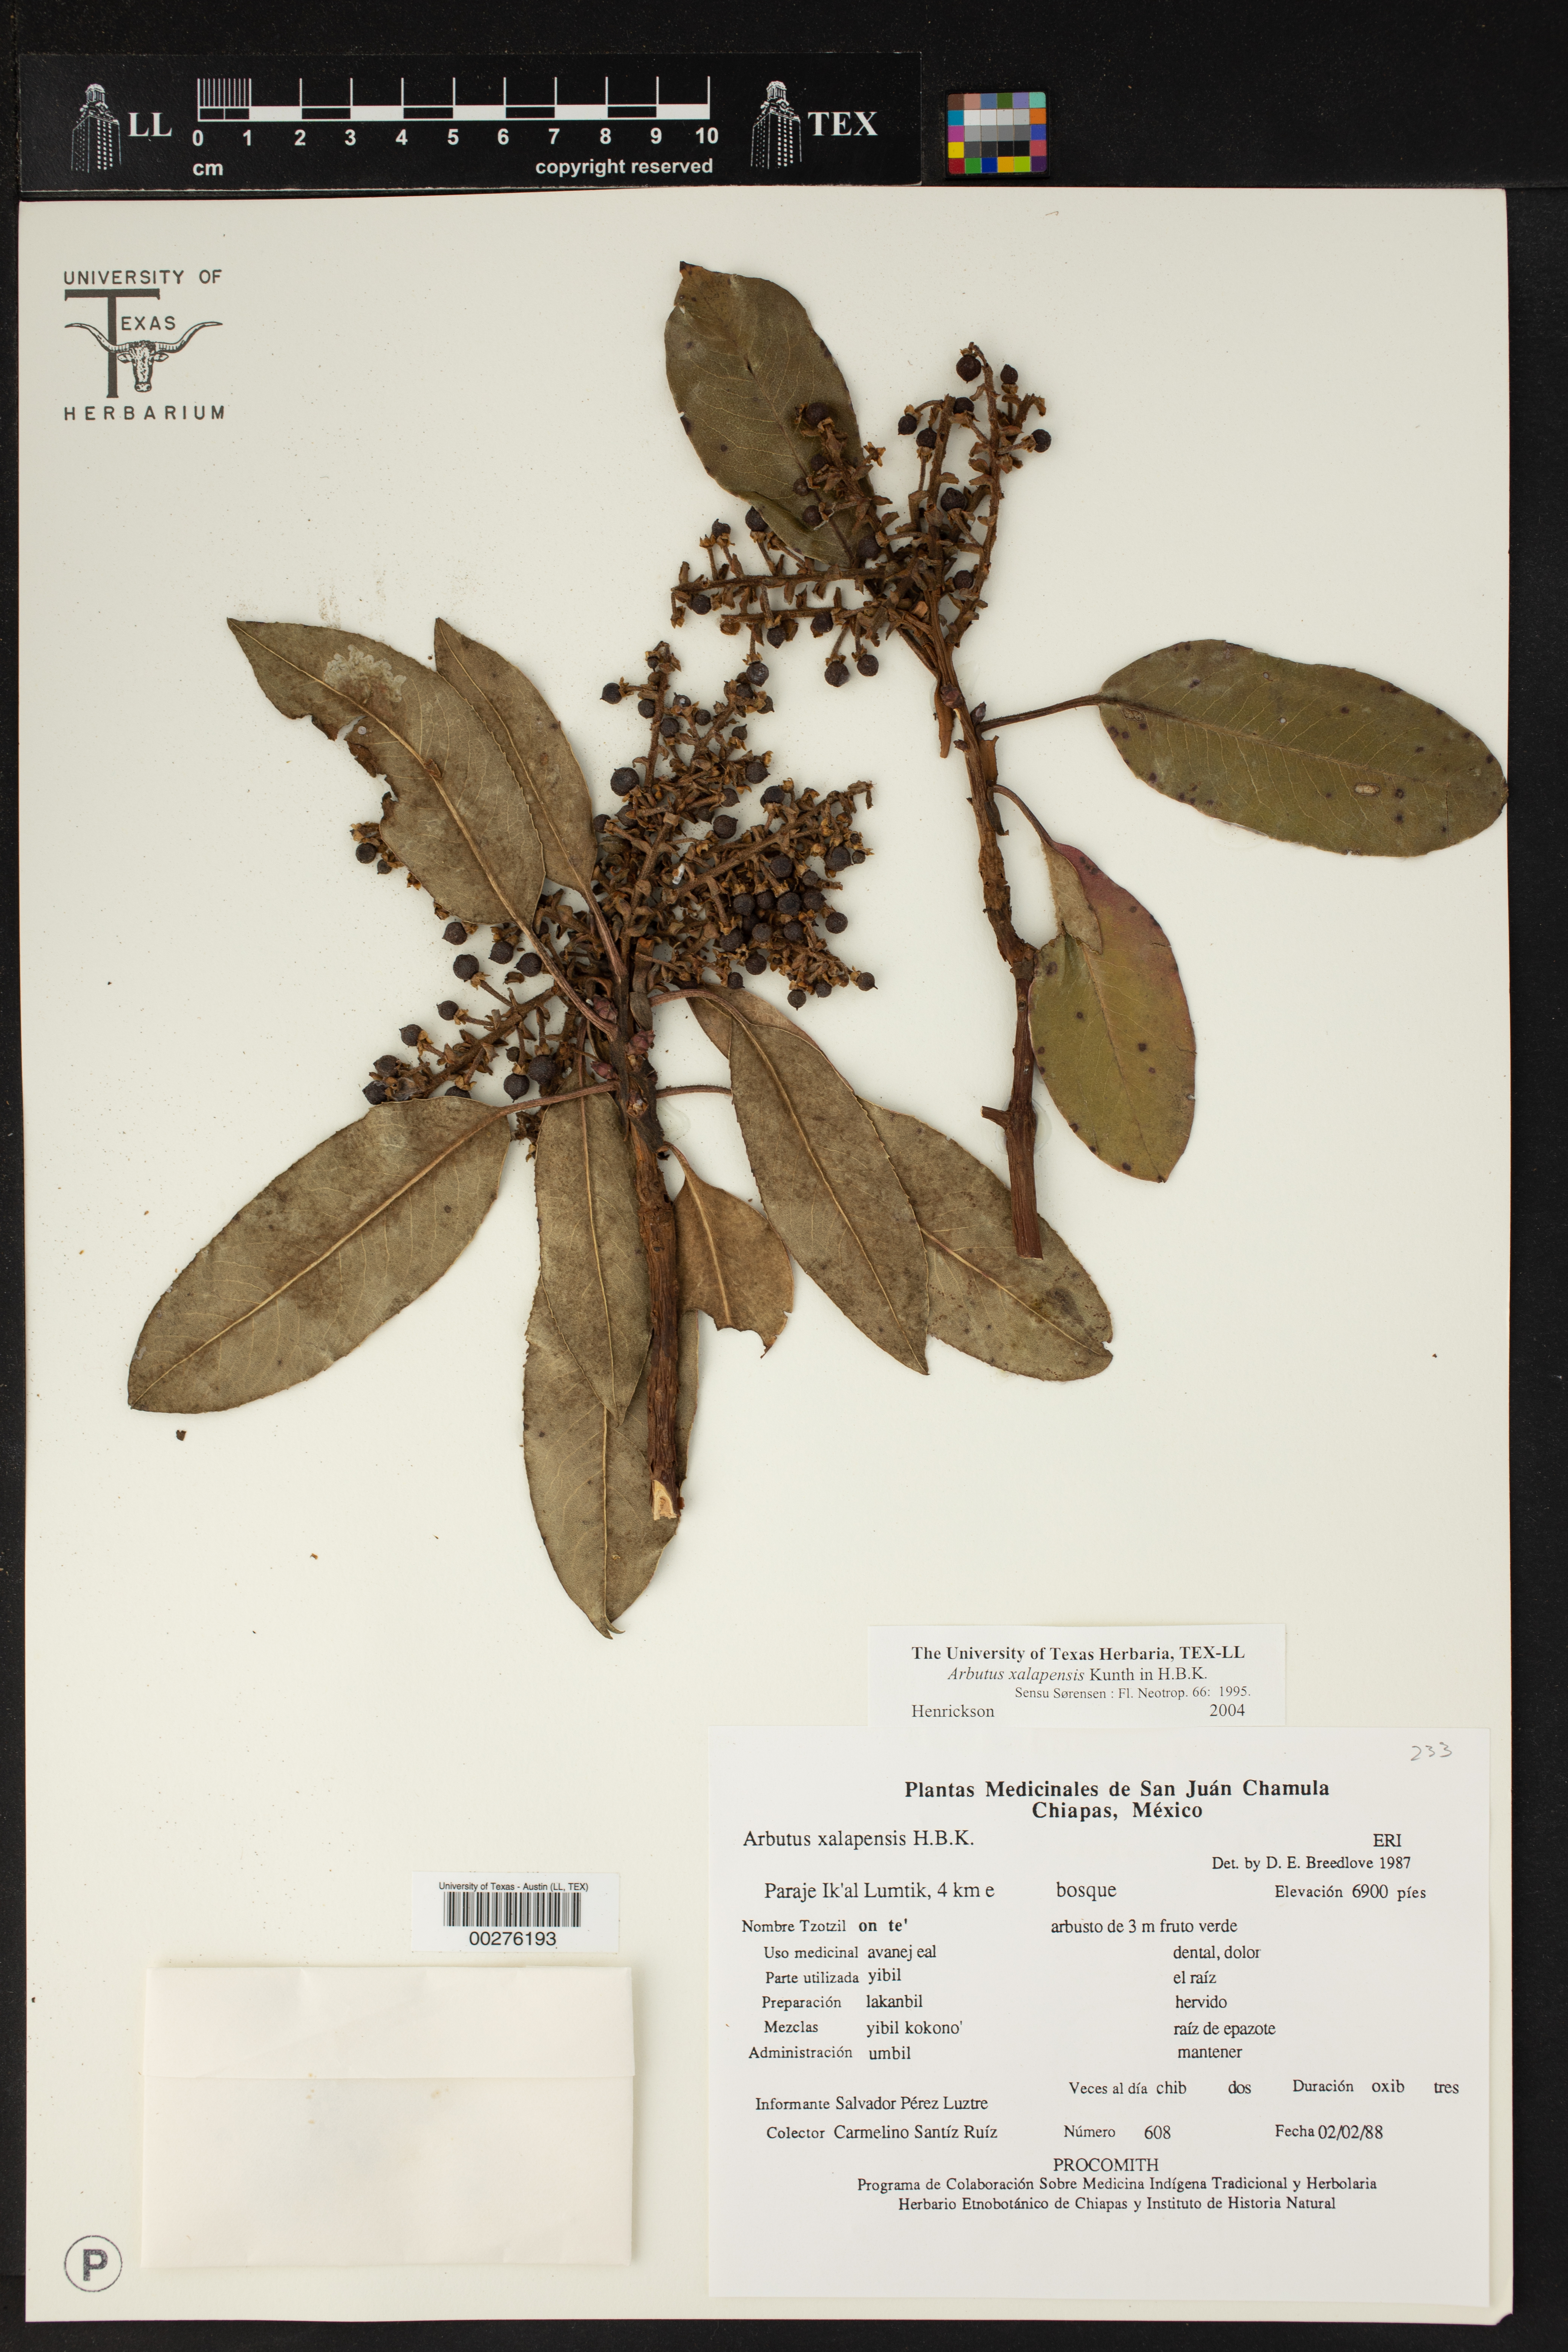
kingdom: Plantae
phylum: Tracheophyta
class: Magnoliopsida
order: Ericales
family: Ericaceae
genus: Arbutus
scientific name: Arbutus xalapensis
